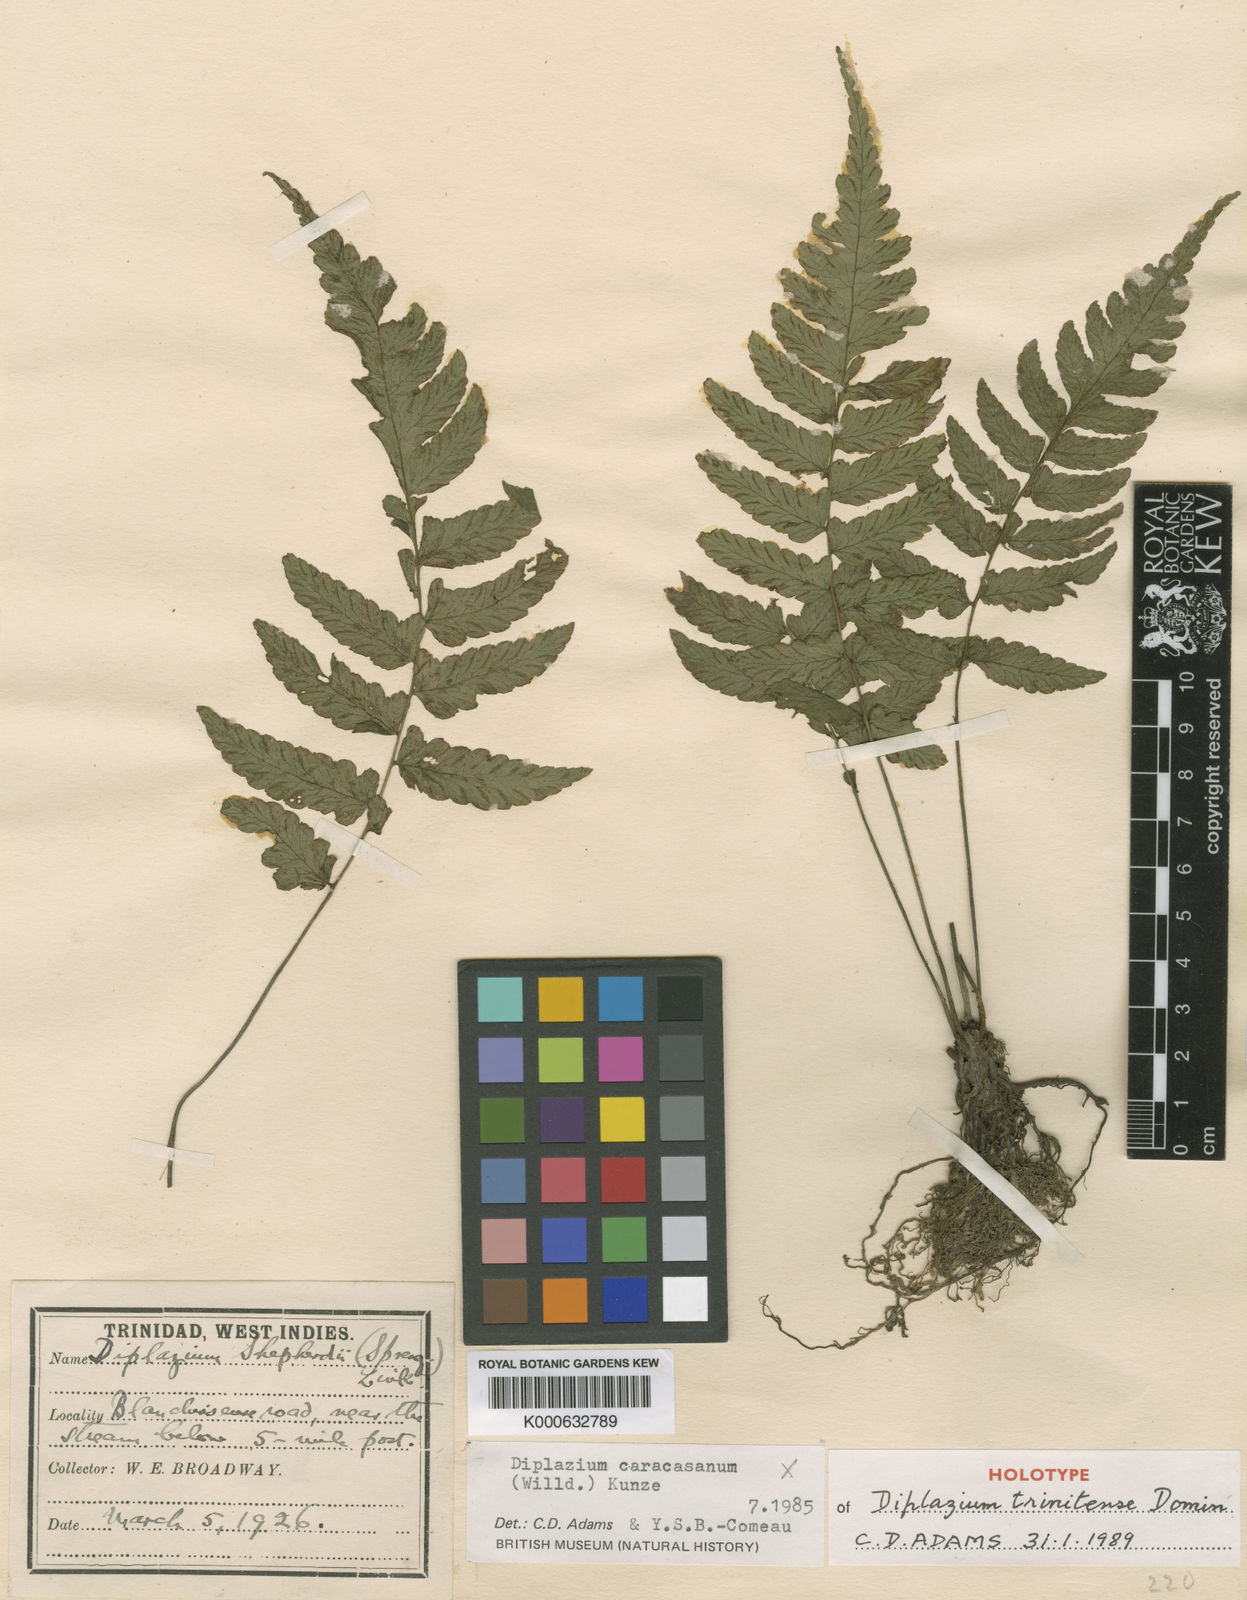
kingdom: Plantae
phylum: Tracheophyta
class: Polypodiopsida
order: Polypodiales
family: Athyriaceae
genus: Diplazium
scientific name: Diplazium caracasanum
